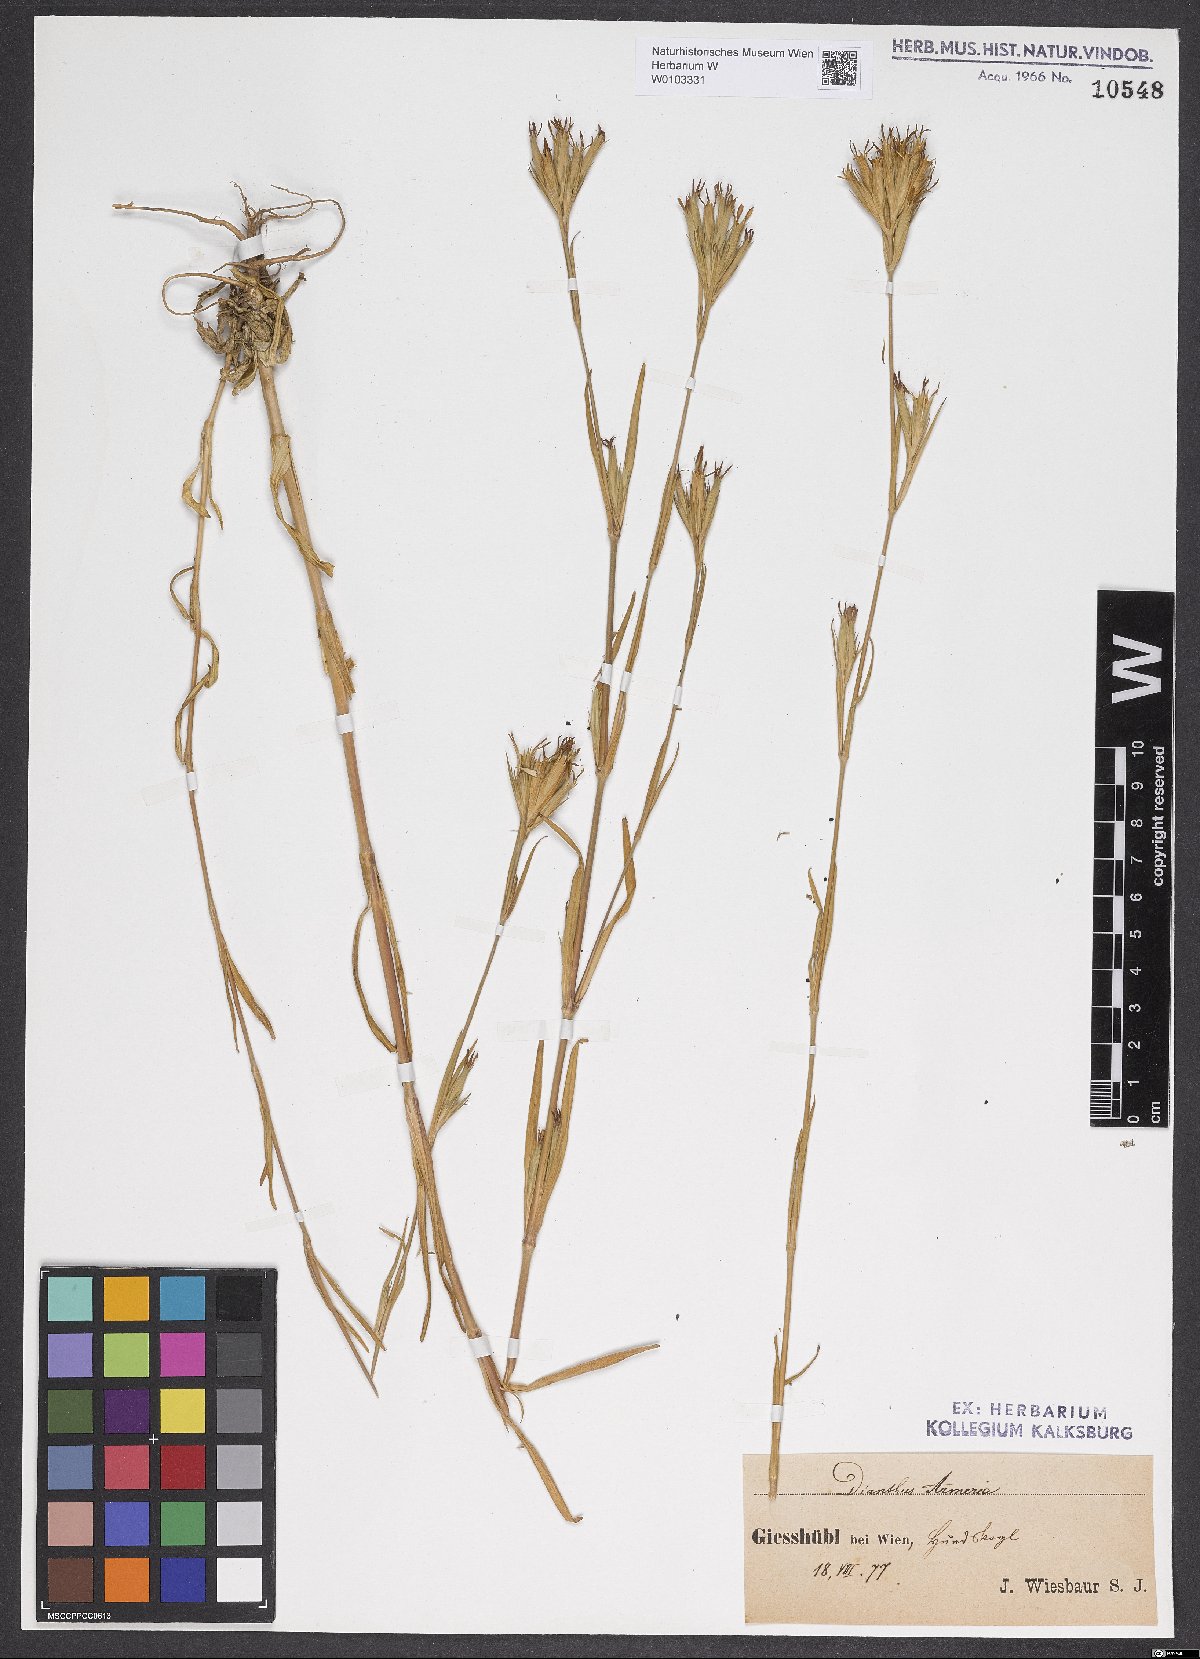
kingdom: Plantae
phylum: Tracheophyta
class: Magnoliopsida
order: Caryophyllales
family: Caryophyllaceae
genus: Dianthus
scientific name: Dianthus armeria
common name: Deptford pink
